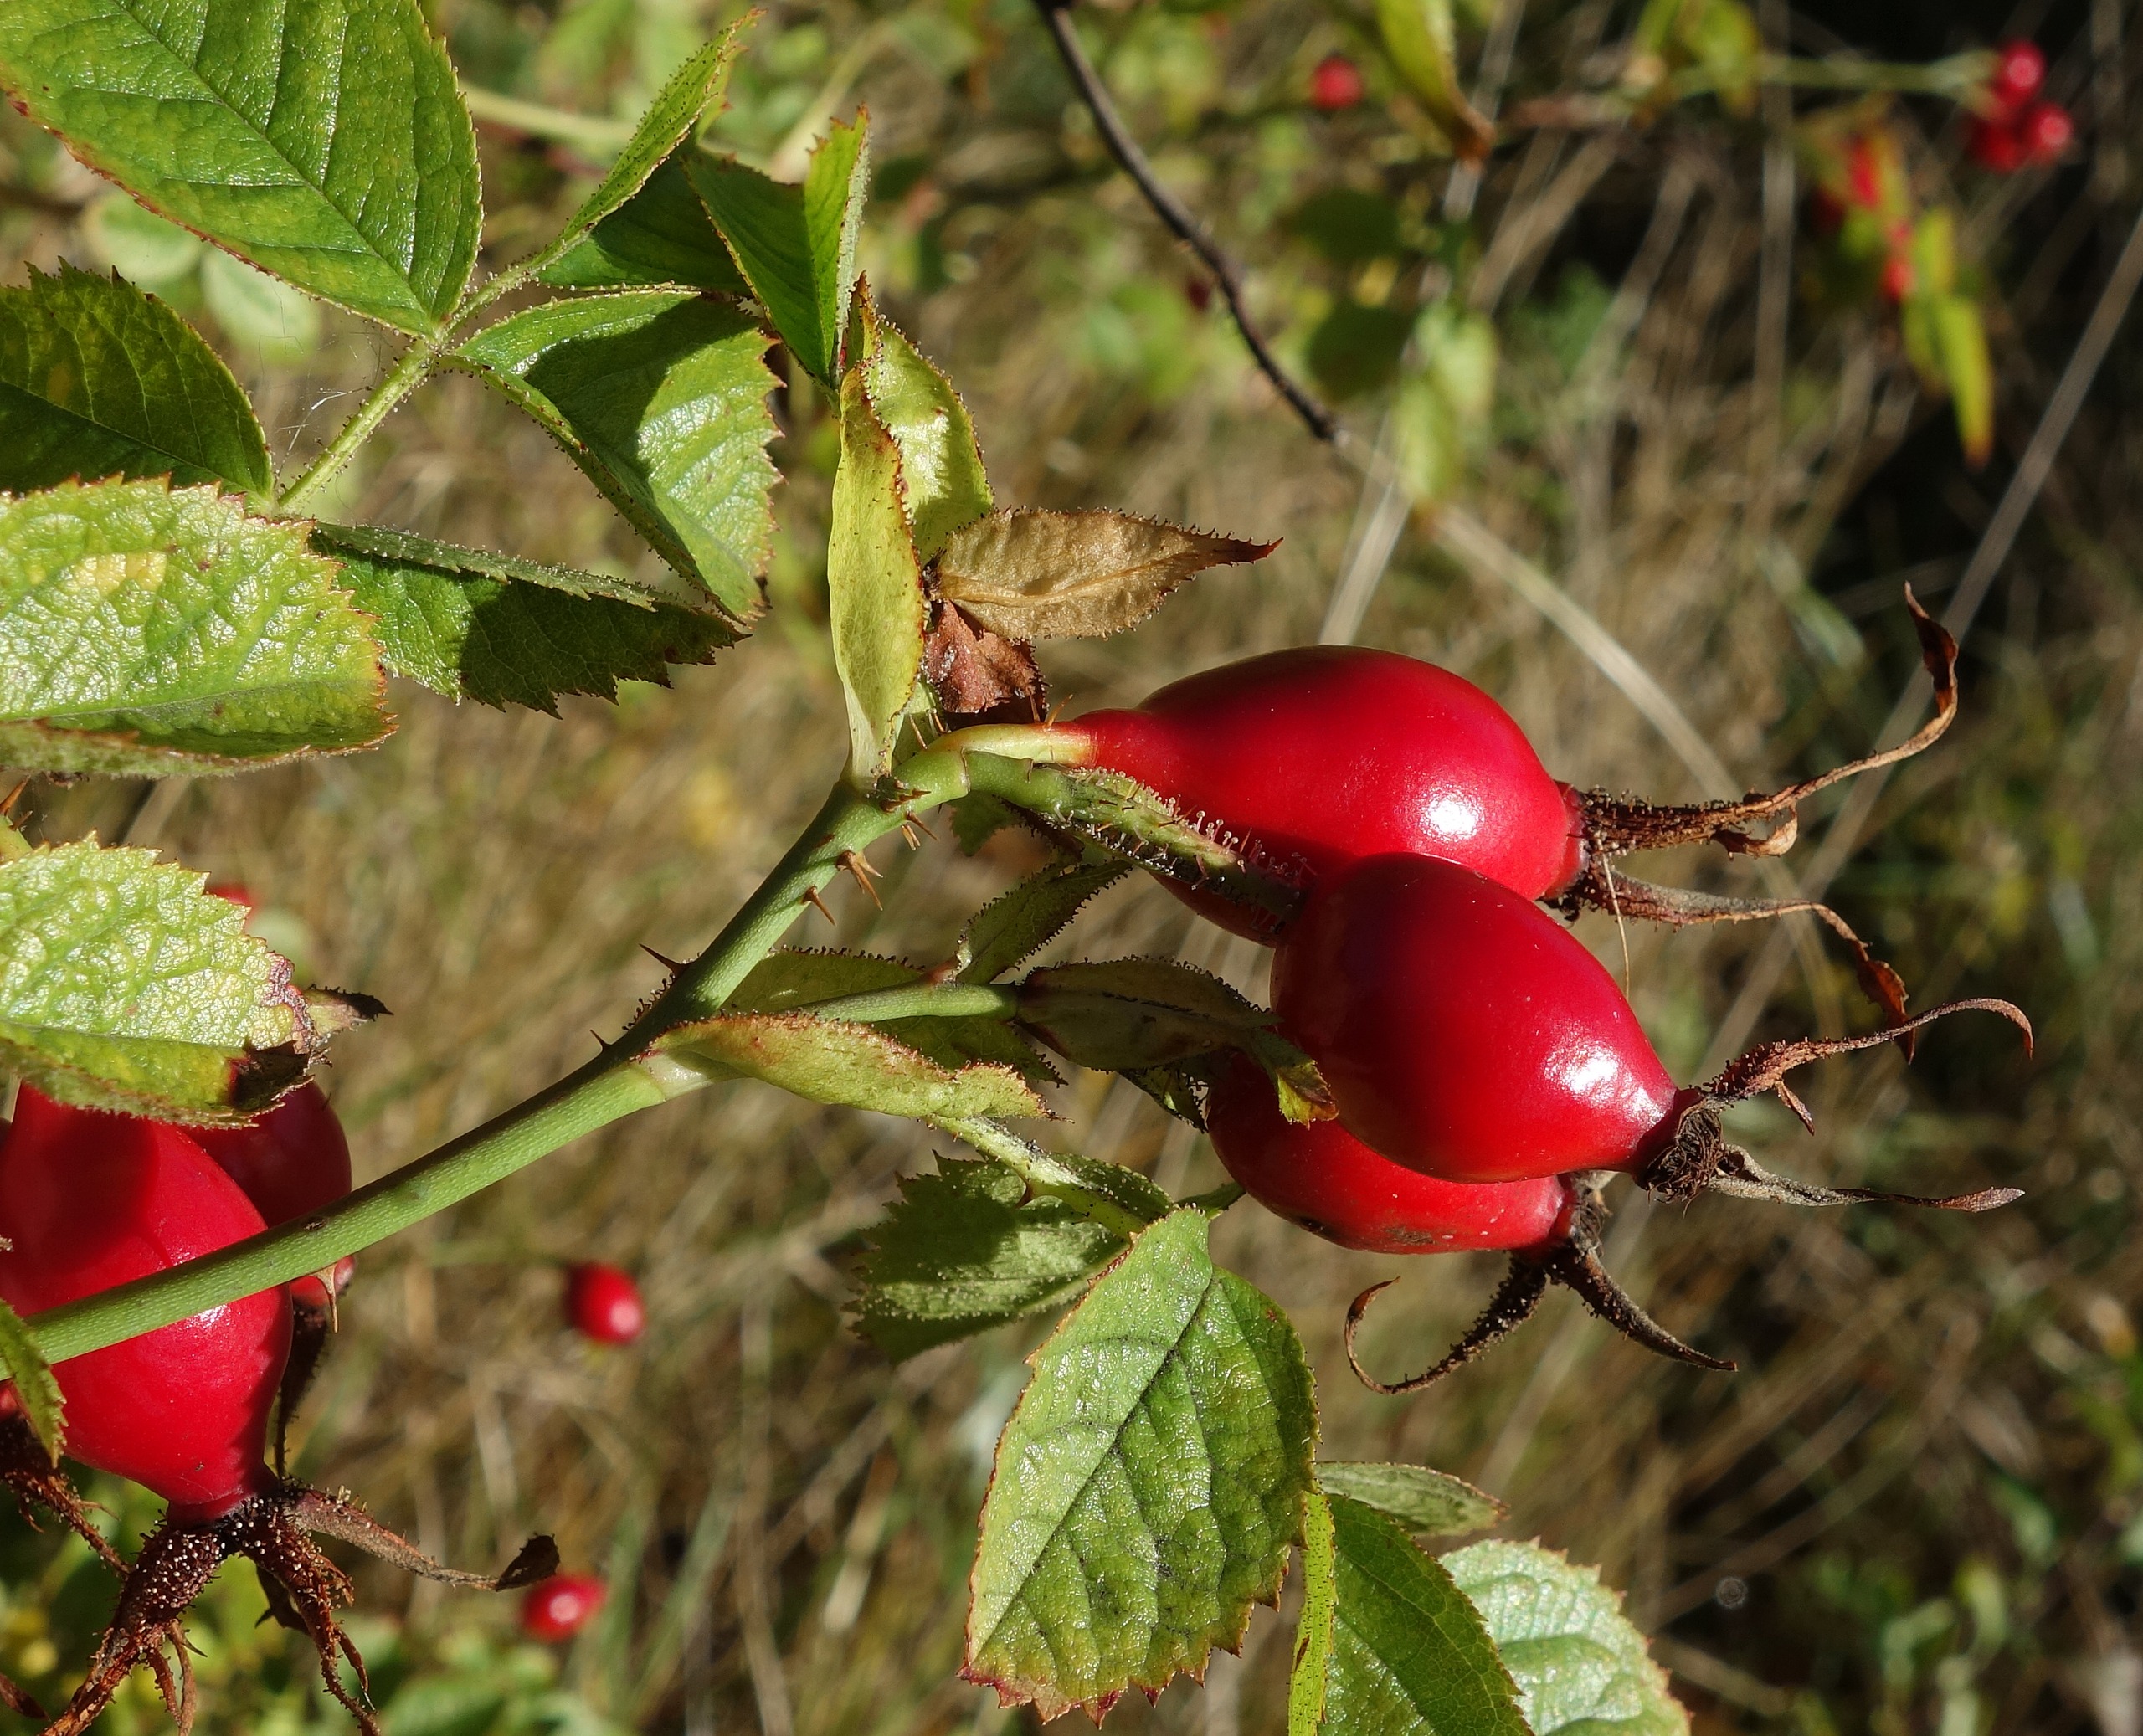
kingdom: Plantae
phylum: Tracheophyta
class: Magnoliopsida
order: Rosales
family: Rosaceae
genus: Rosa
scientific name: Rosa rubiginosa
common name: Æble-rose
